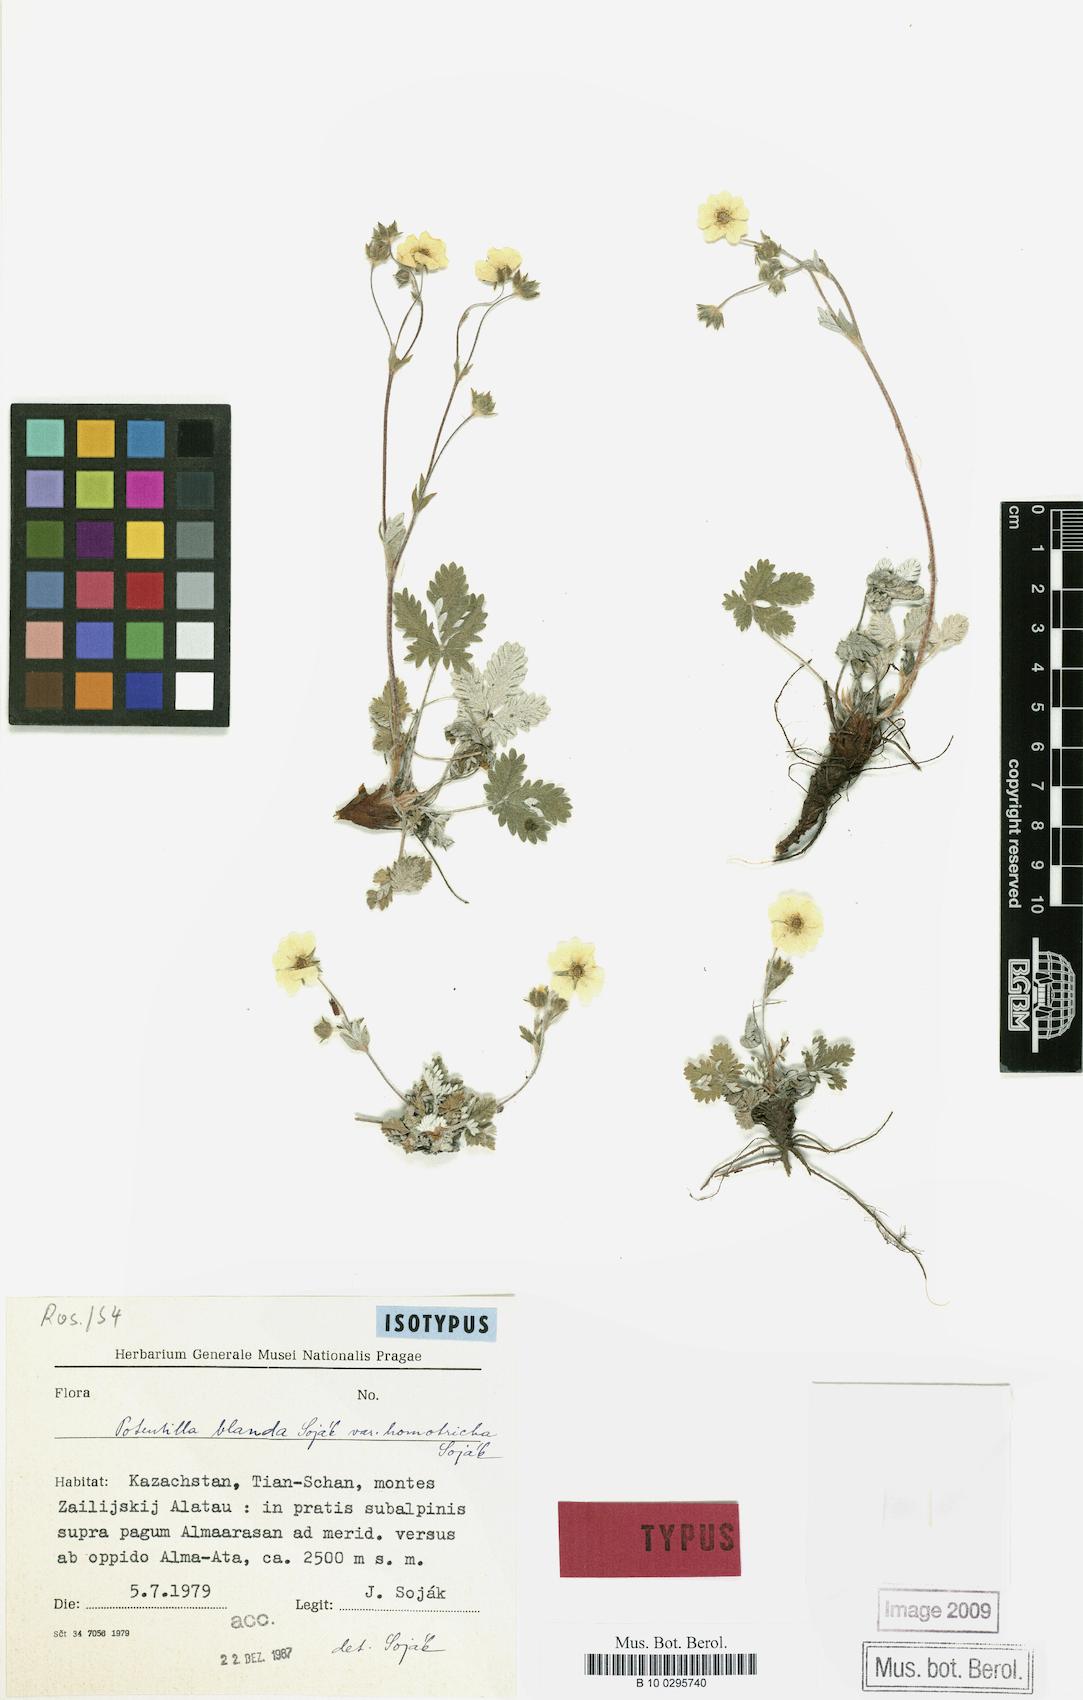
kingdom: Plantae
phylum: Tracheophyta
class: Magnoliopsida
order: Rosales
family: Rosaceae
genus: Potentilla
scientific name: Potentilla blanda
